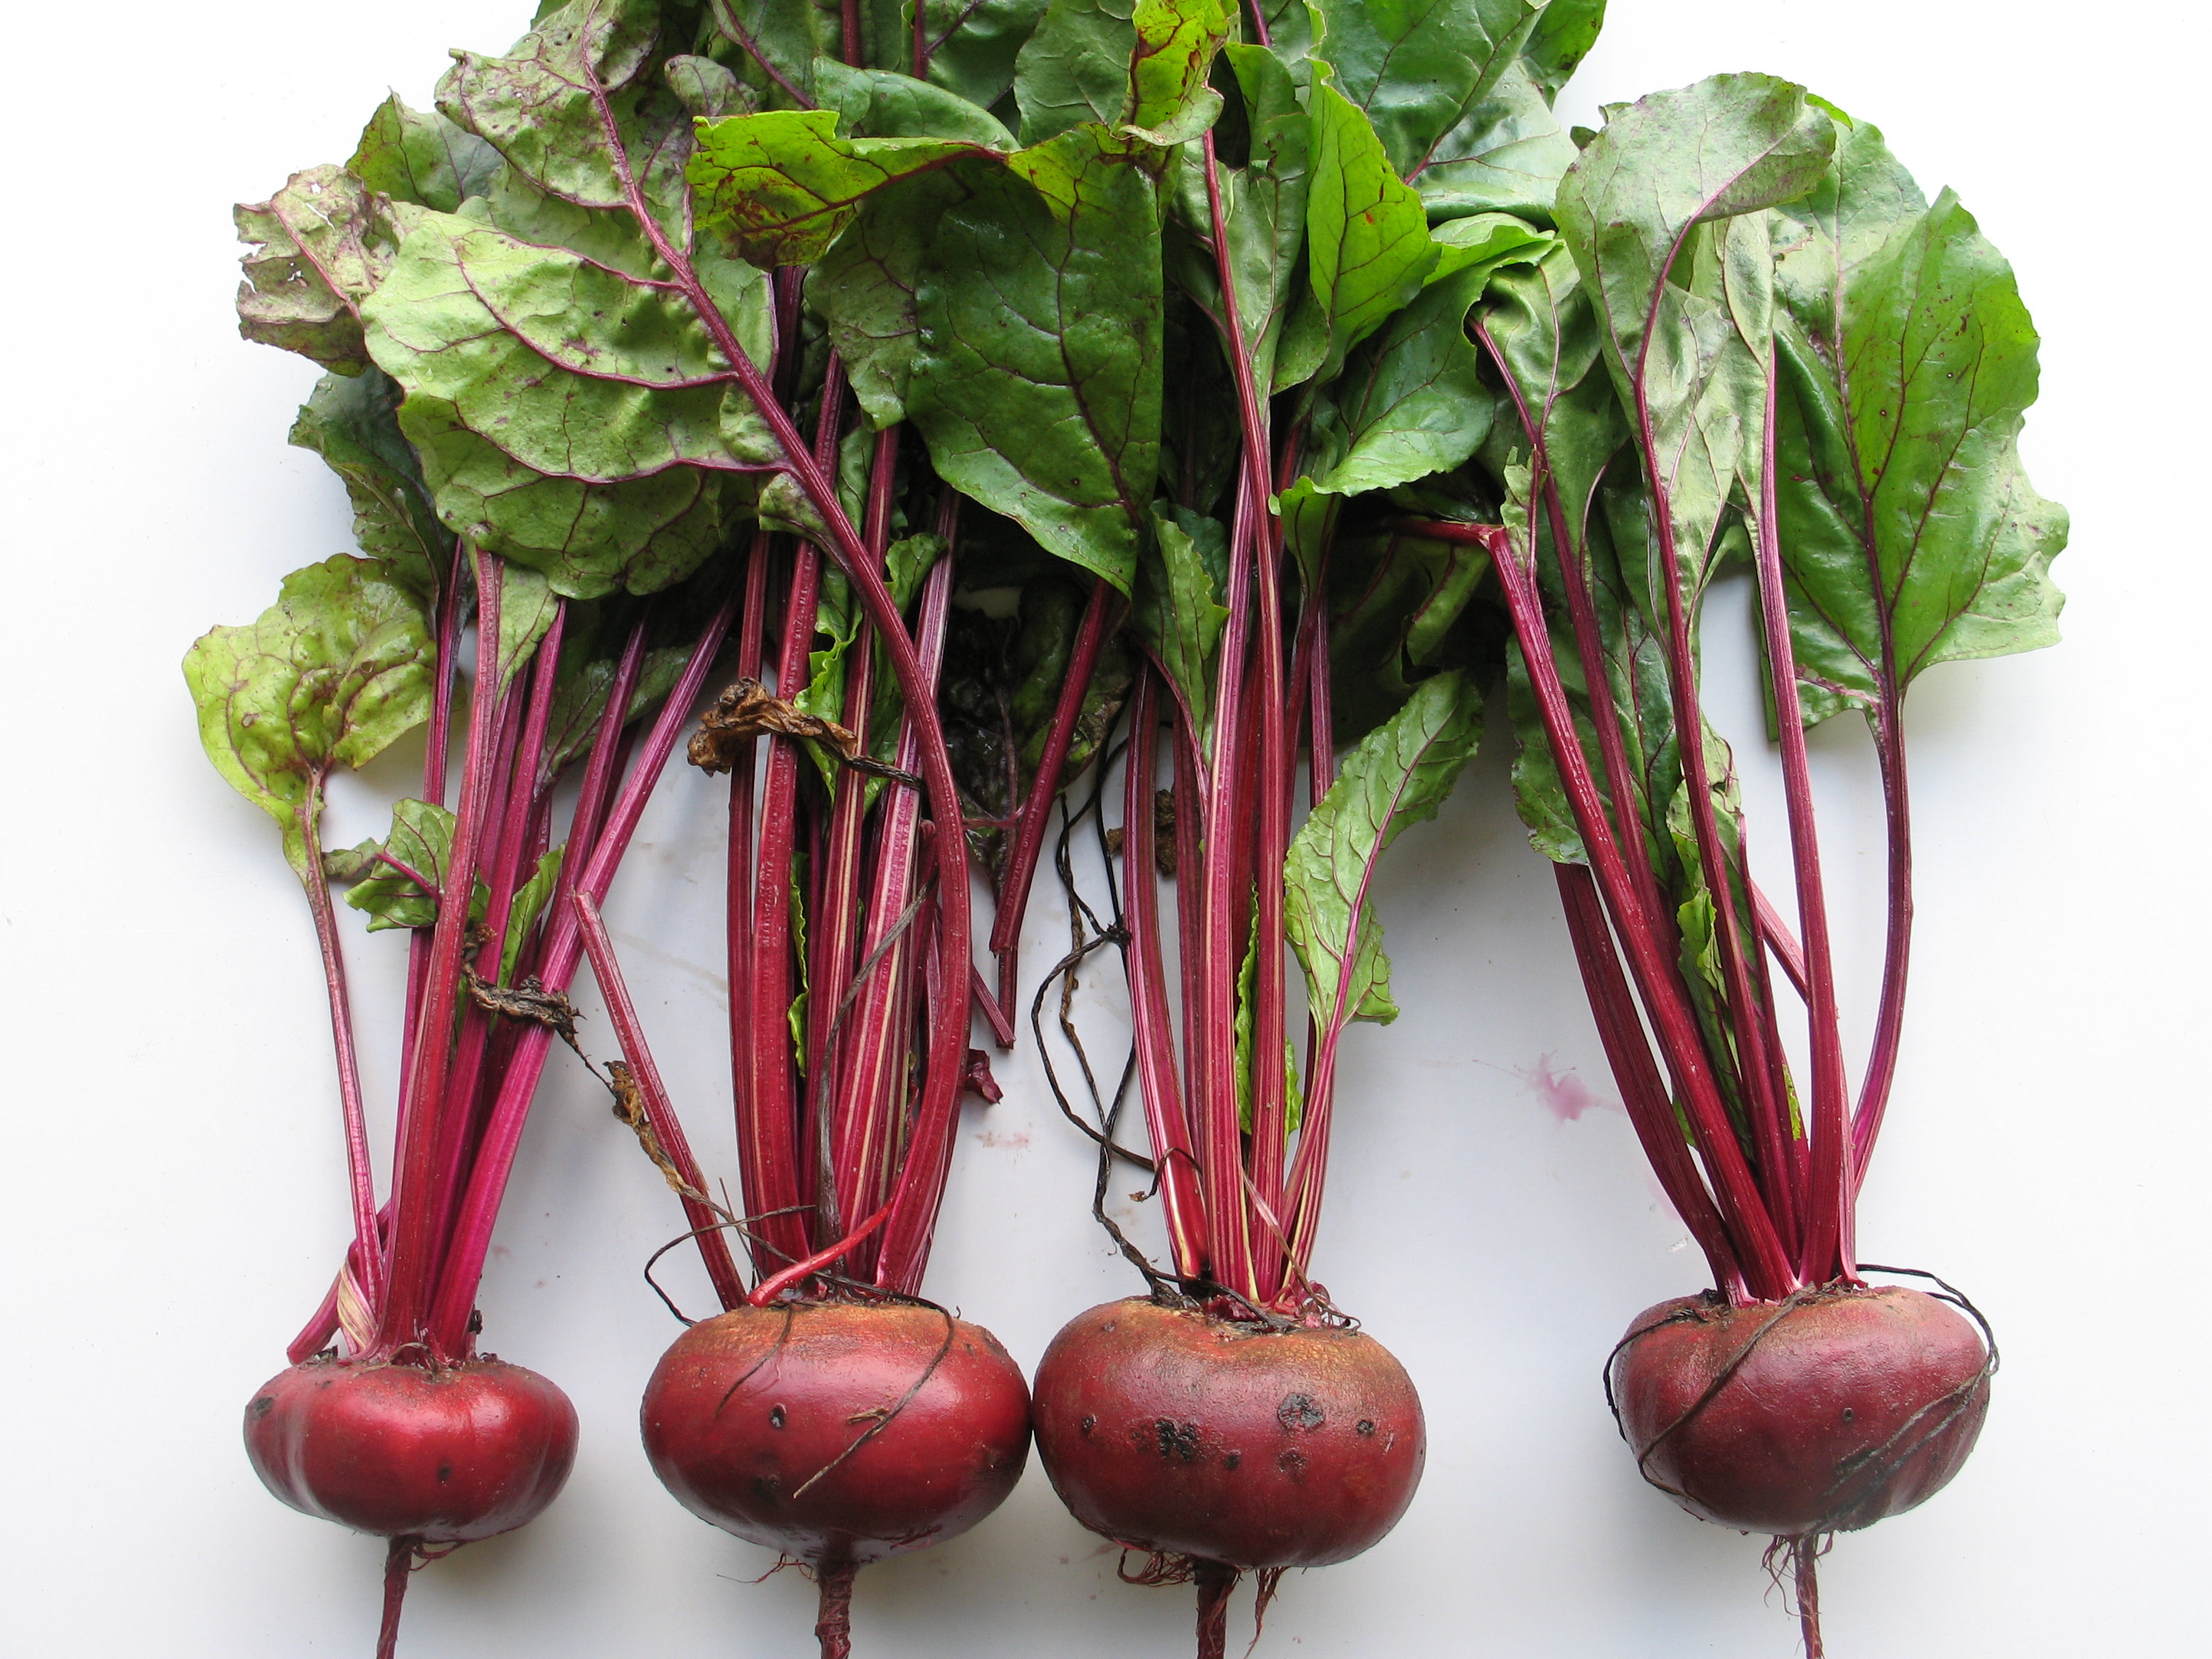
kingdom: Plantae
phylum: Tracheophyta
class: Magnoliopsida
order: Caryophyllales
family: Amaranthaceae
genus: Beta
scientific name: Beta vulgaris
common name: Beet
